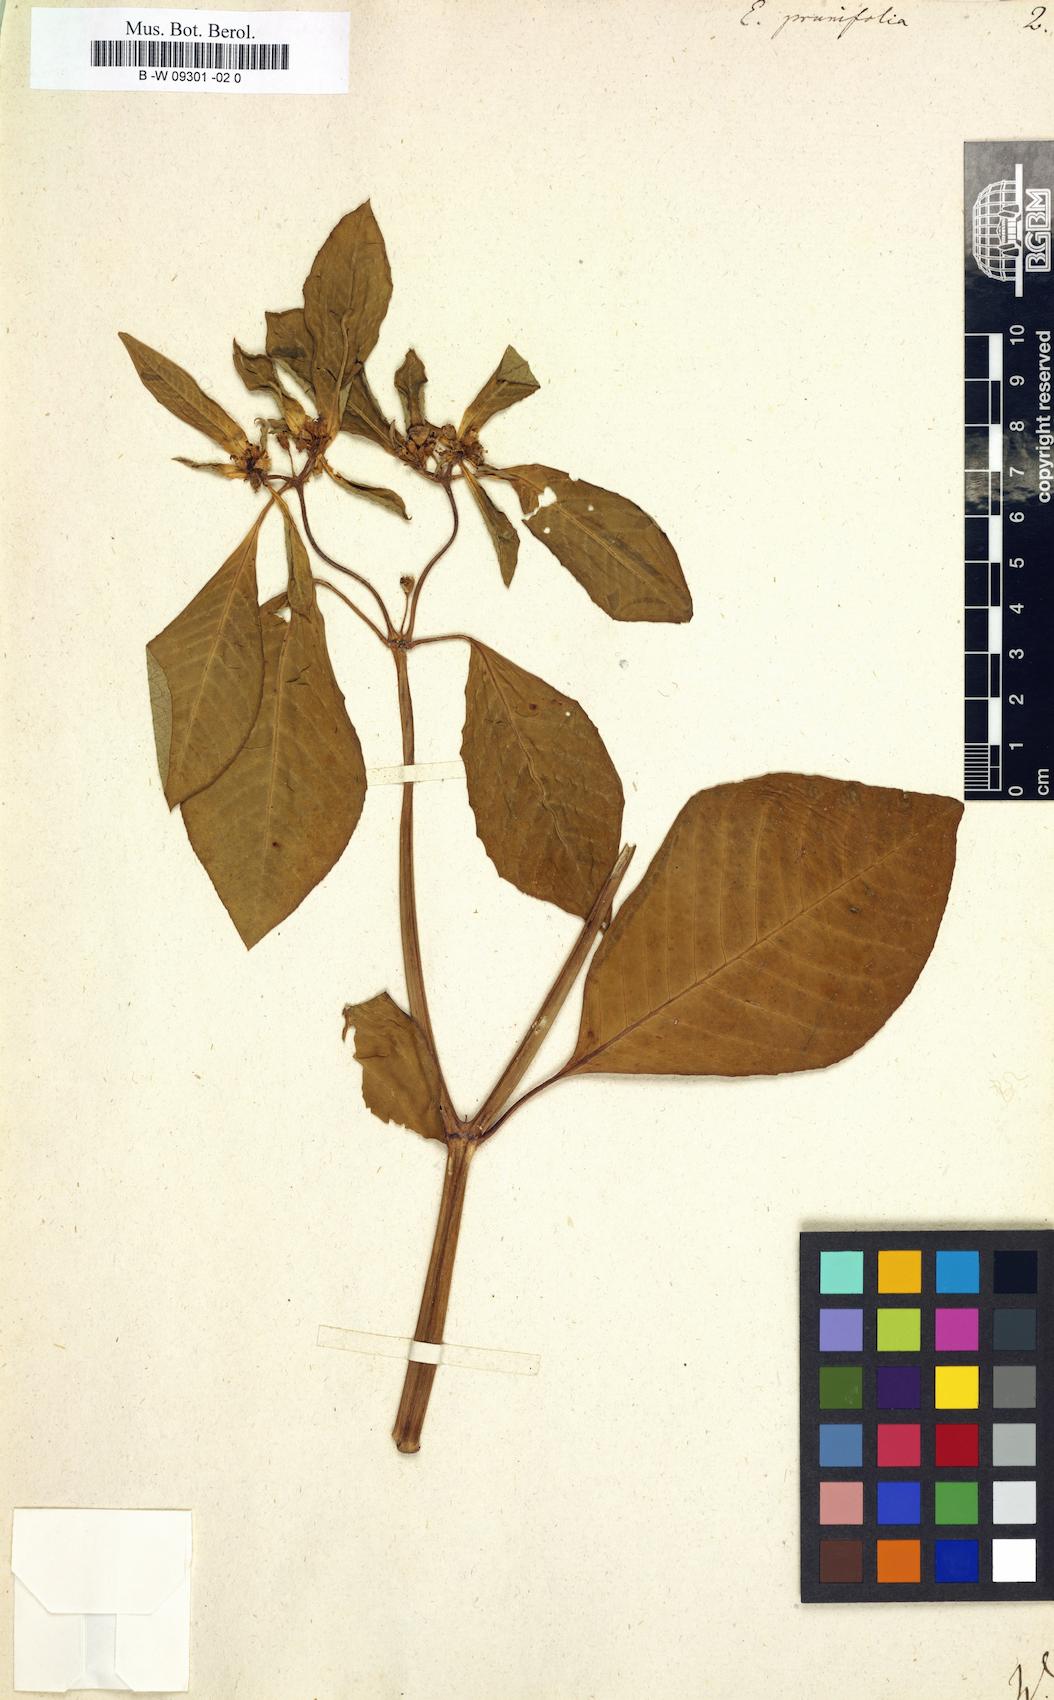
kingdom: Plantae
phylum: Tracheophyta
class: Magnoliopsida
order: Malpighiales
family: Euphorbiaceae
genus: Euphorbia
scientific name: Euphorbia heterophylla
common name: Mexican fireplant
